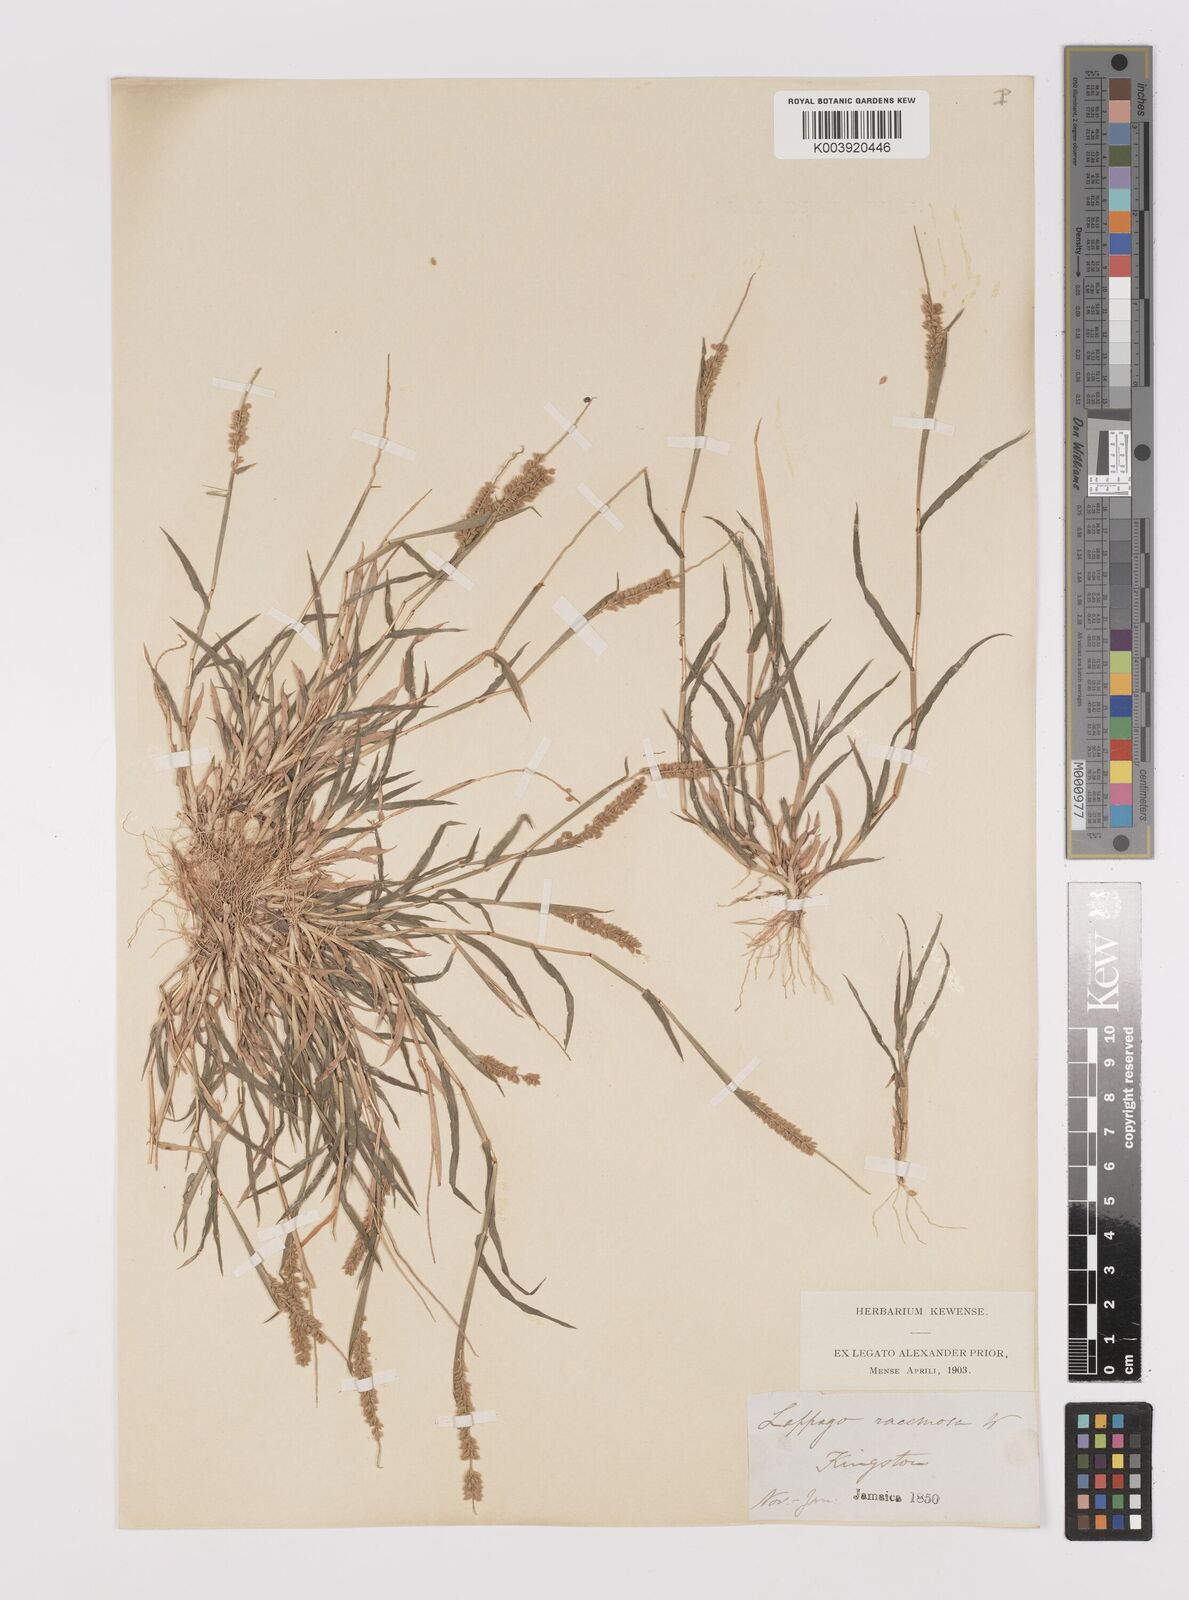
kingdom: Plantae
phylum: Tracheophyta
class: Liliopsida
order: Poales
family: Poaceae
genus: Tragus
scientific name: Tragus berteronianus
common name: African bur-grass
